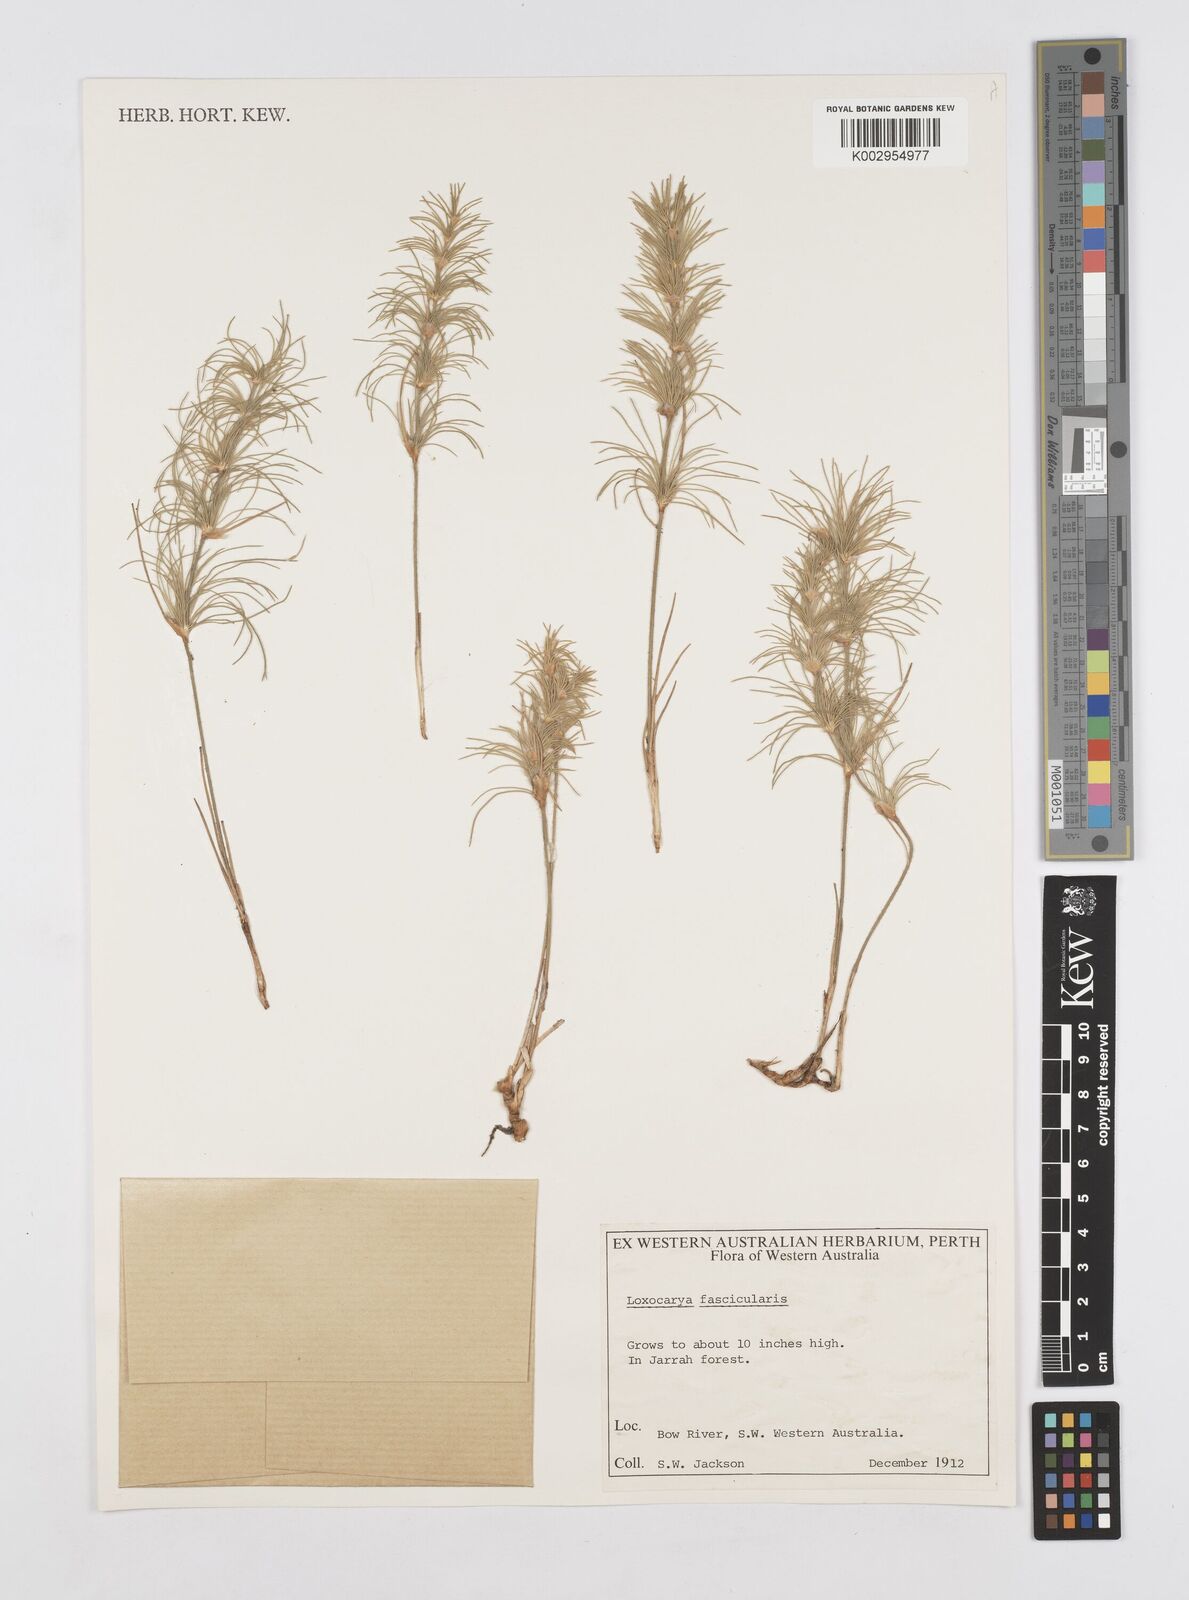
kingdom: Plantae
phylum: Tracheophyta
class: Liliopsida
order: Poales
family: Restionaceae
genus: Desmocladus
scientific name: Desmocladus fasciculatus
